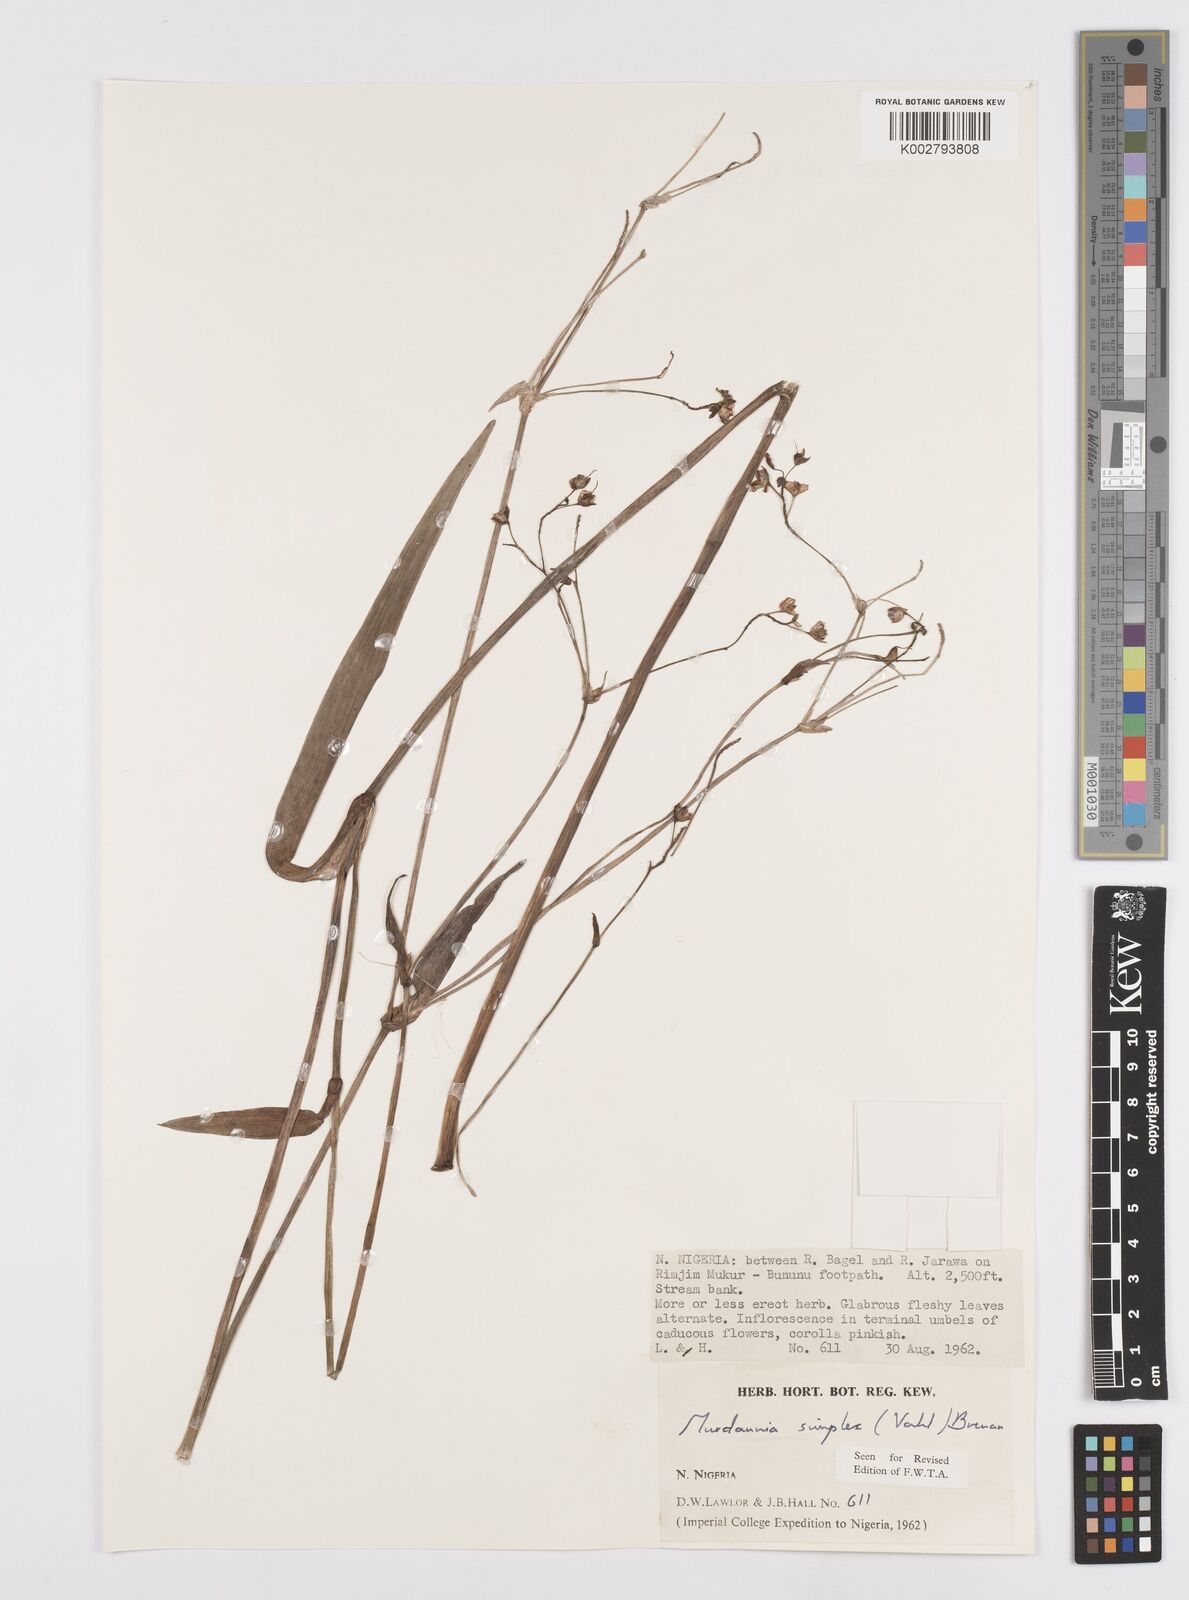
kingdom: Plantae
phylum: Tracheophyta
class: Liliopsida
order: Commelinales
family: Commelinaceae
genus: Murdannia
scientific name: Murdannia simplex
